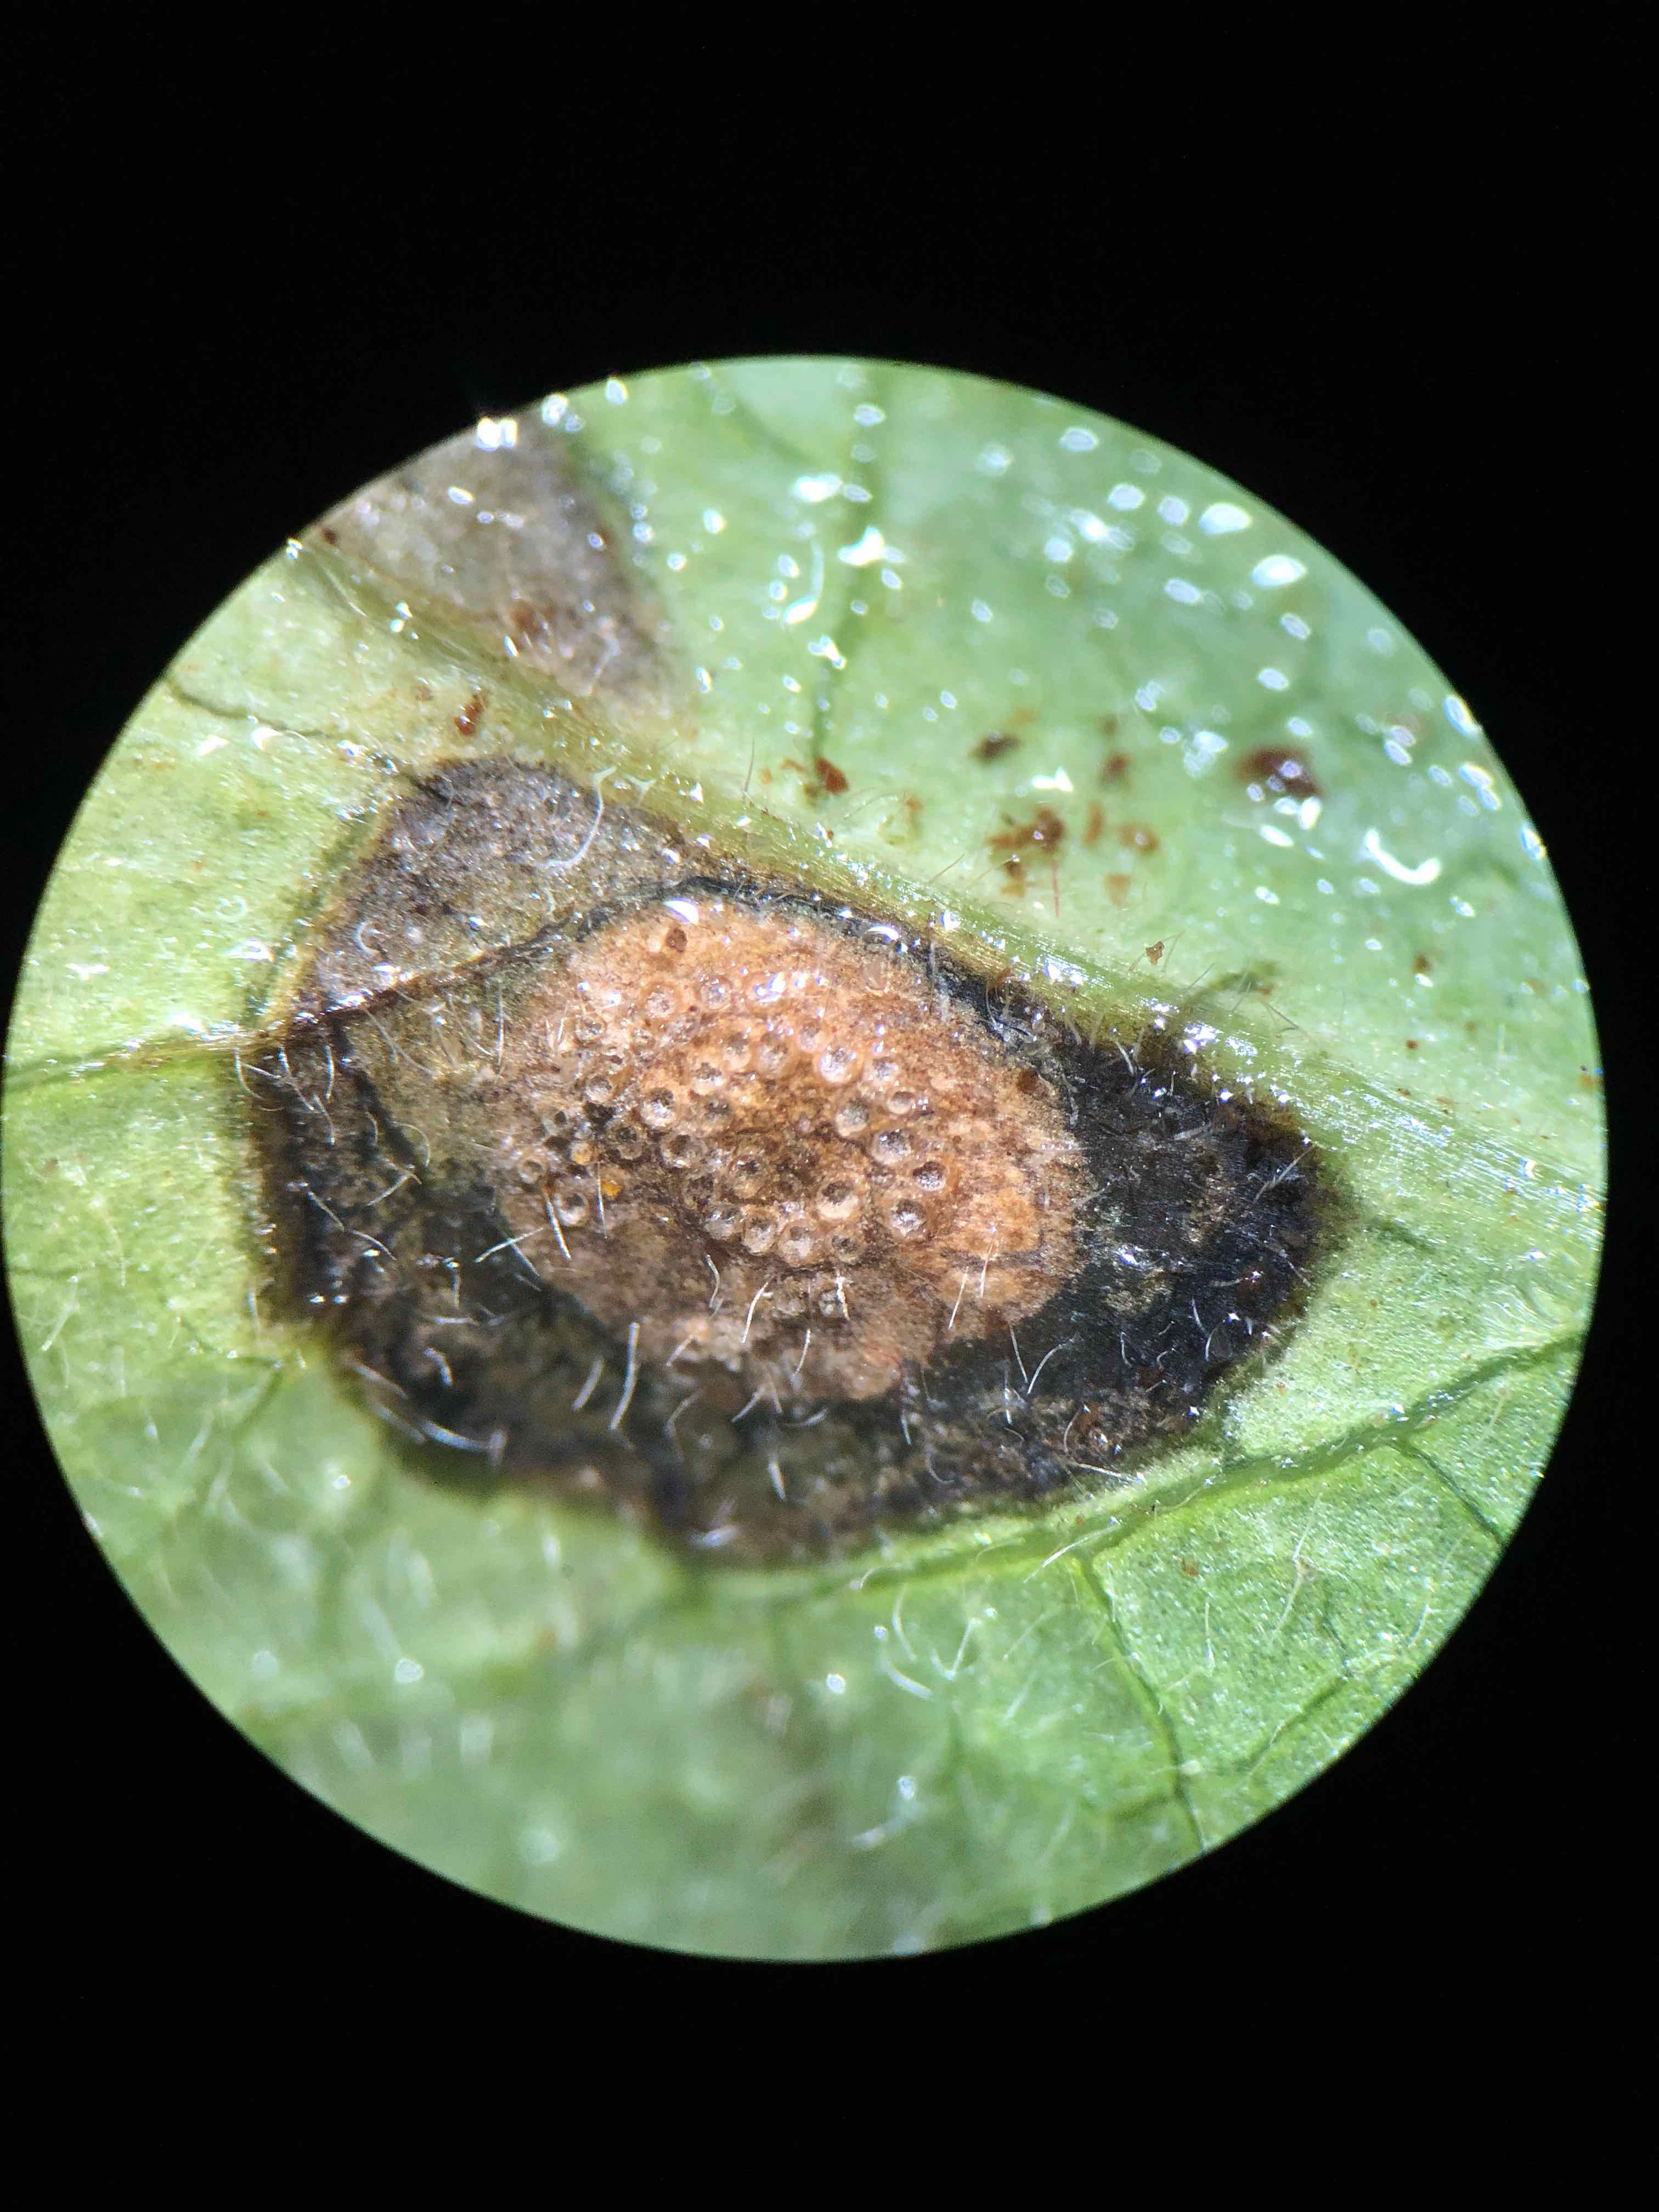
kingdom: Fungi
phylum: Basidiomycota
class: Pucciniomycetes
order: Pucciniales
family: Pucciniaceae
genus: Puccinia
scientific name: Puccinia festucae
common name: gedeblad-tvecellerust
